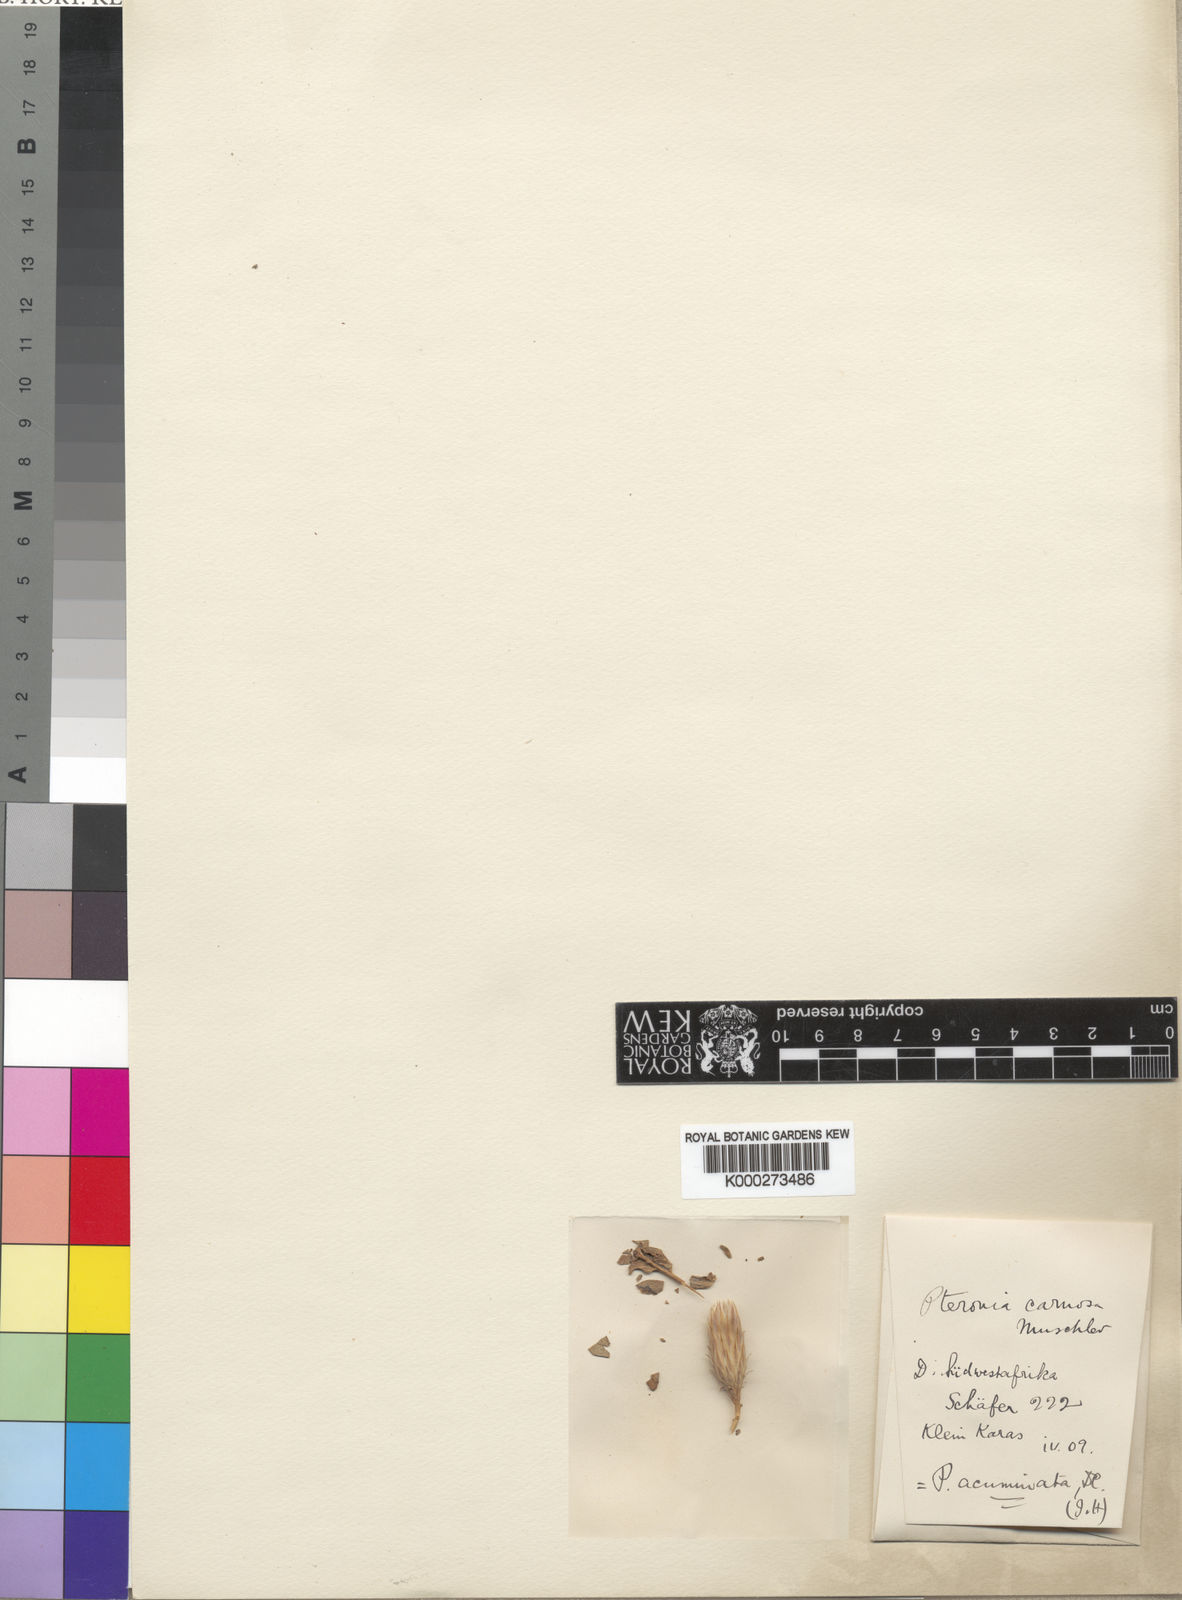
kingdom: Plantae
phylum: Tracheophyta
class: Magnoliopsida
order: Asterales
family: Asteraceae
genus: Pteronia
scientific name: Pteronia acuminata
